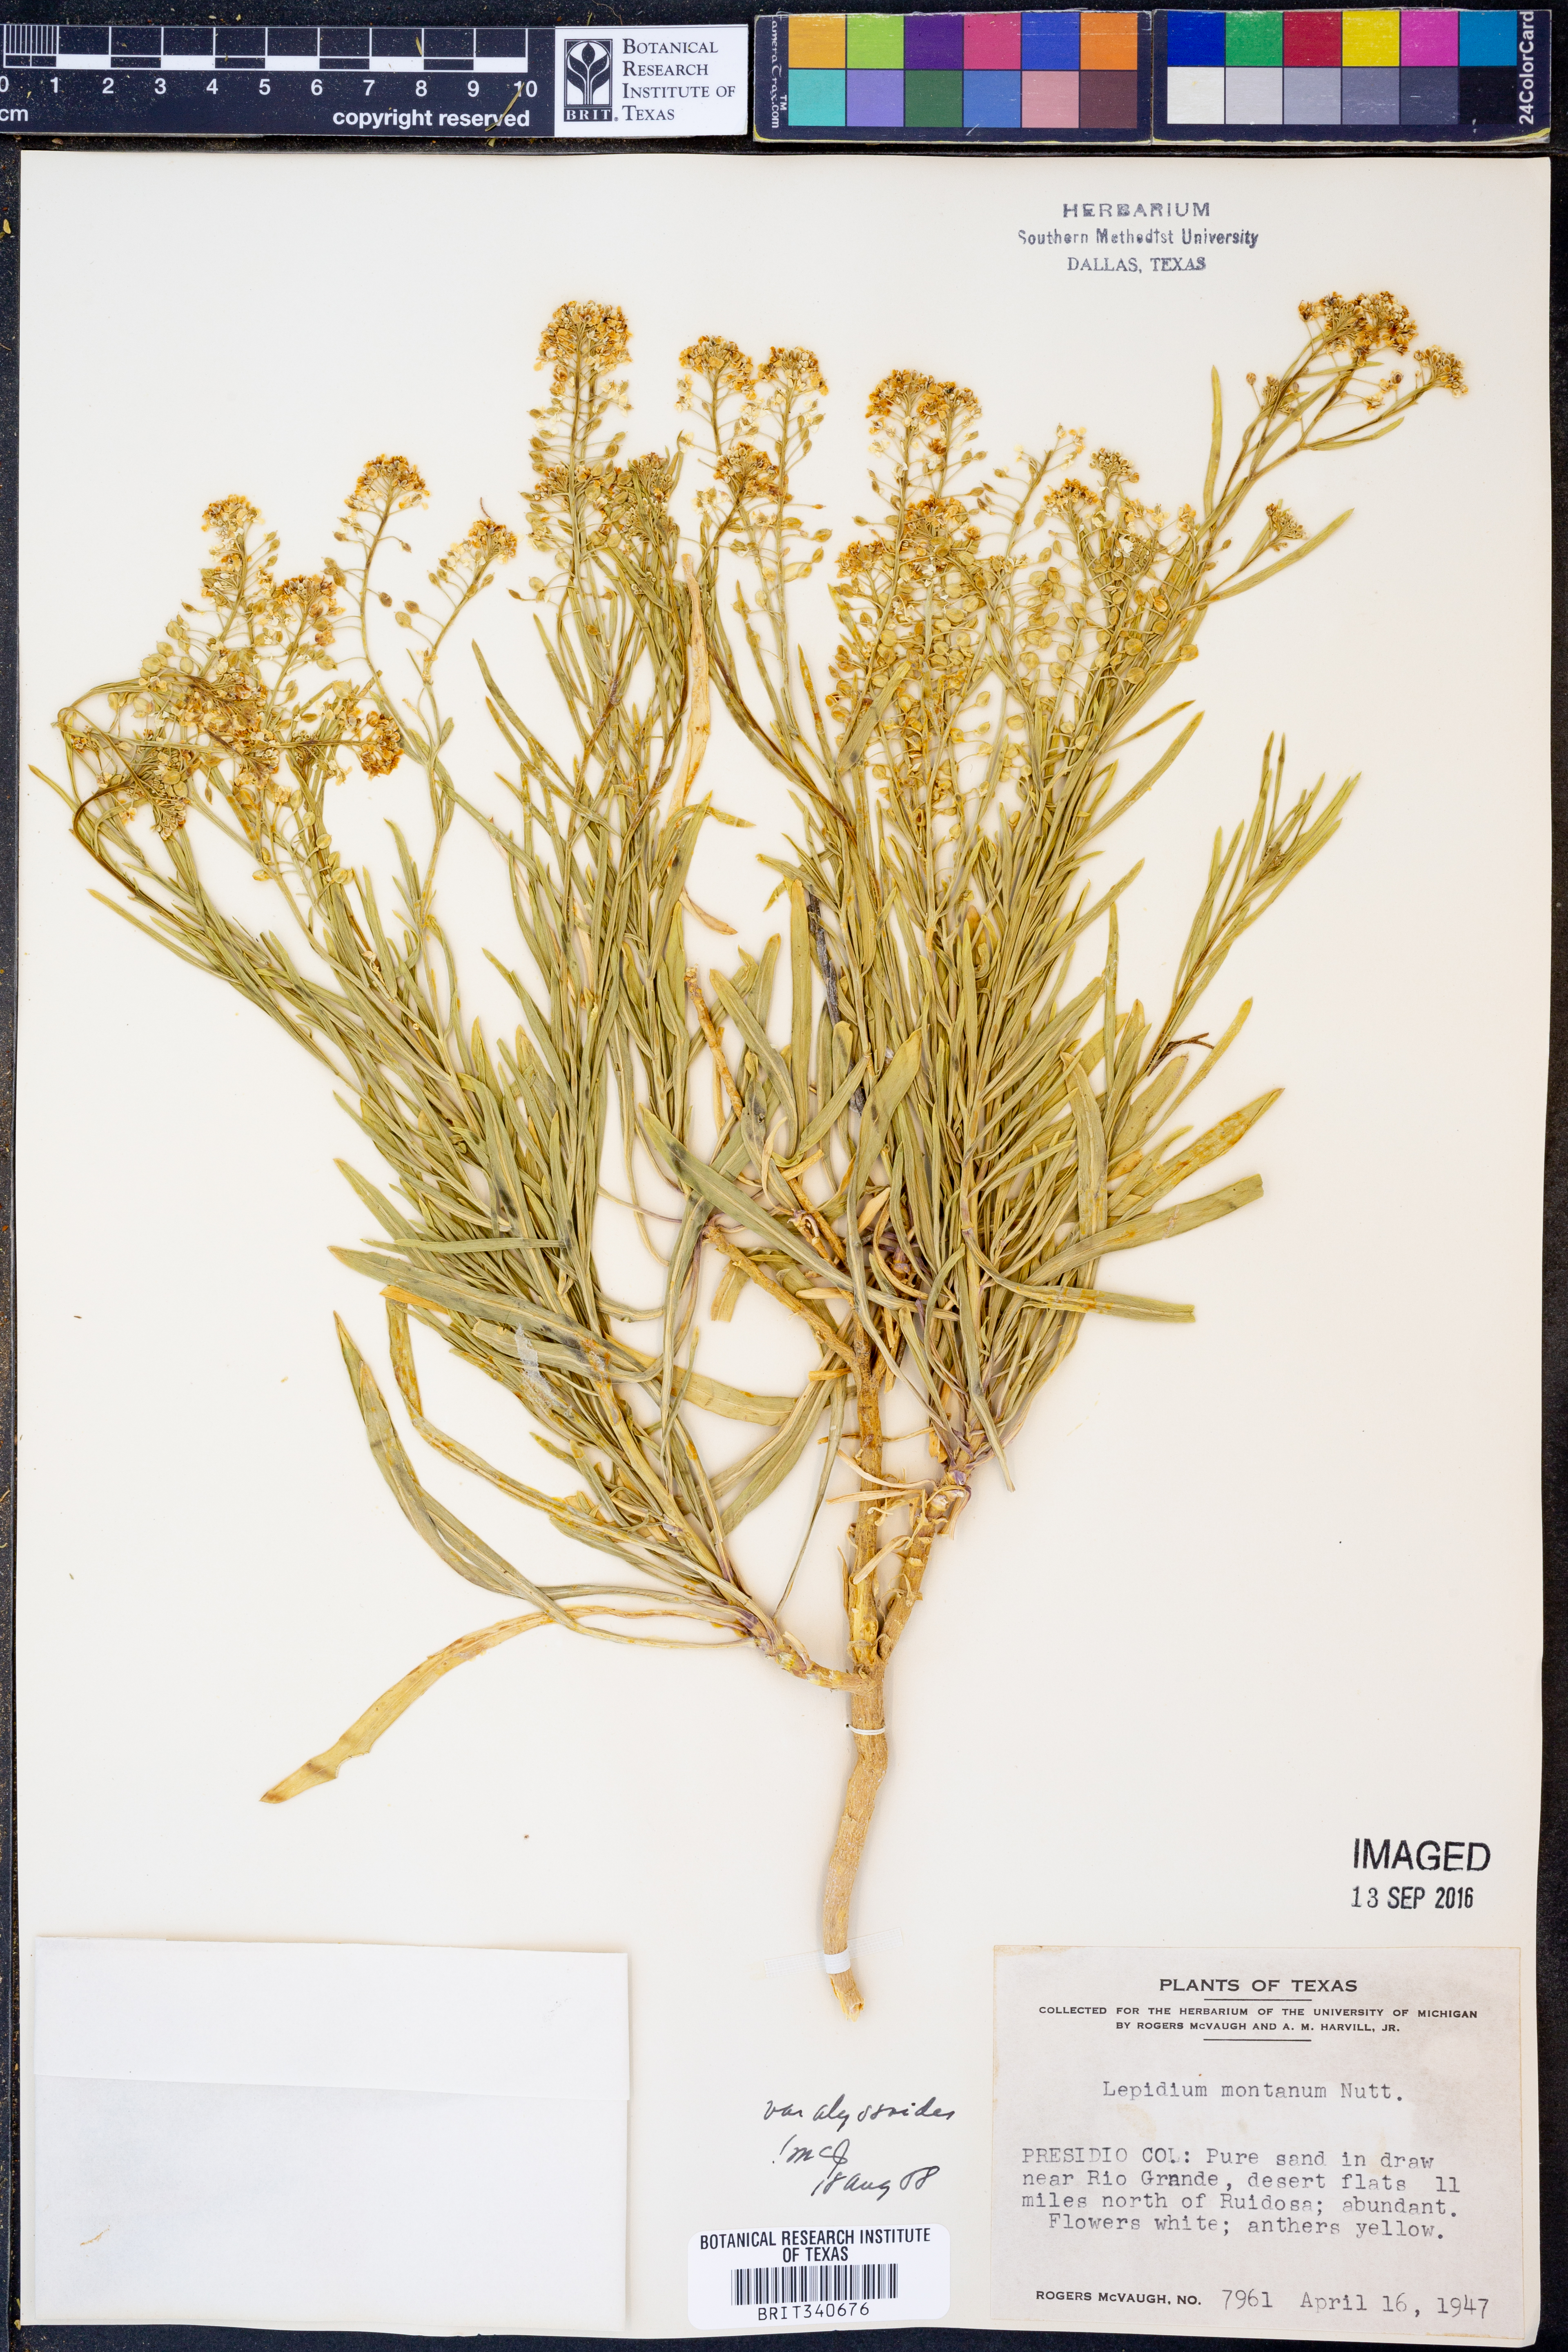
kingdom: Plantae
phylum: Tracheophyta
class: Magnoliopsida
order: Brassicales
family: Brassicaceae
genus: Lepidium
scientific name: Lepidium alyssoides
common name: Mesa pepperweed
